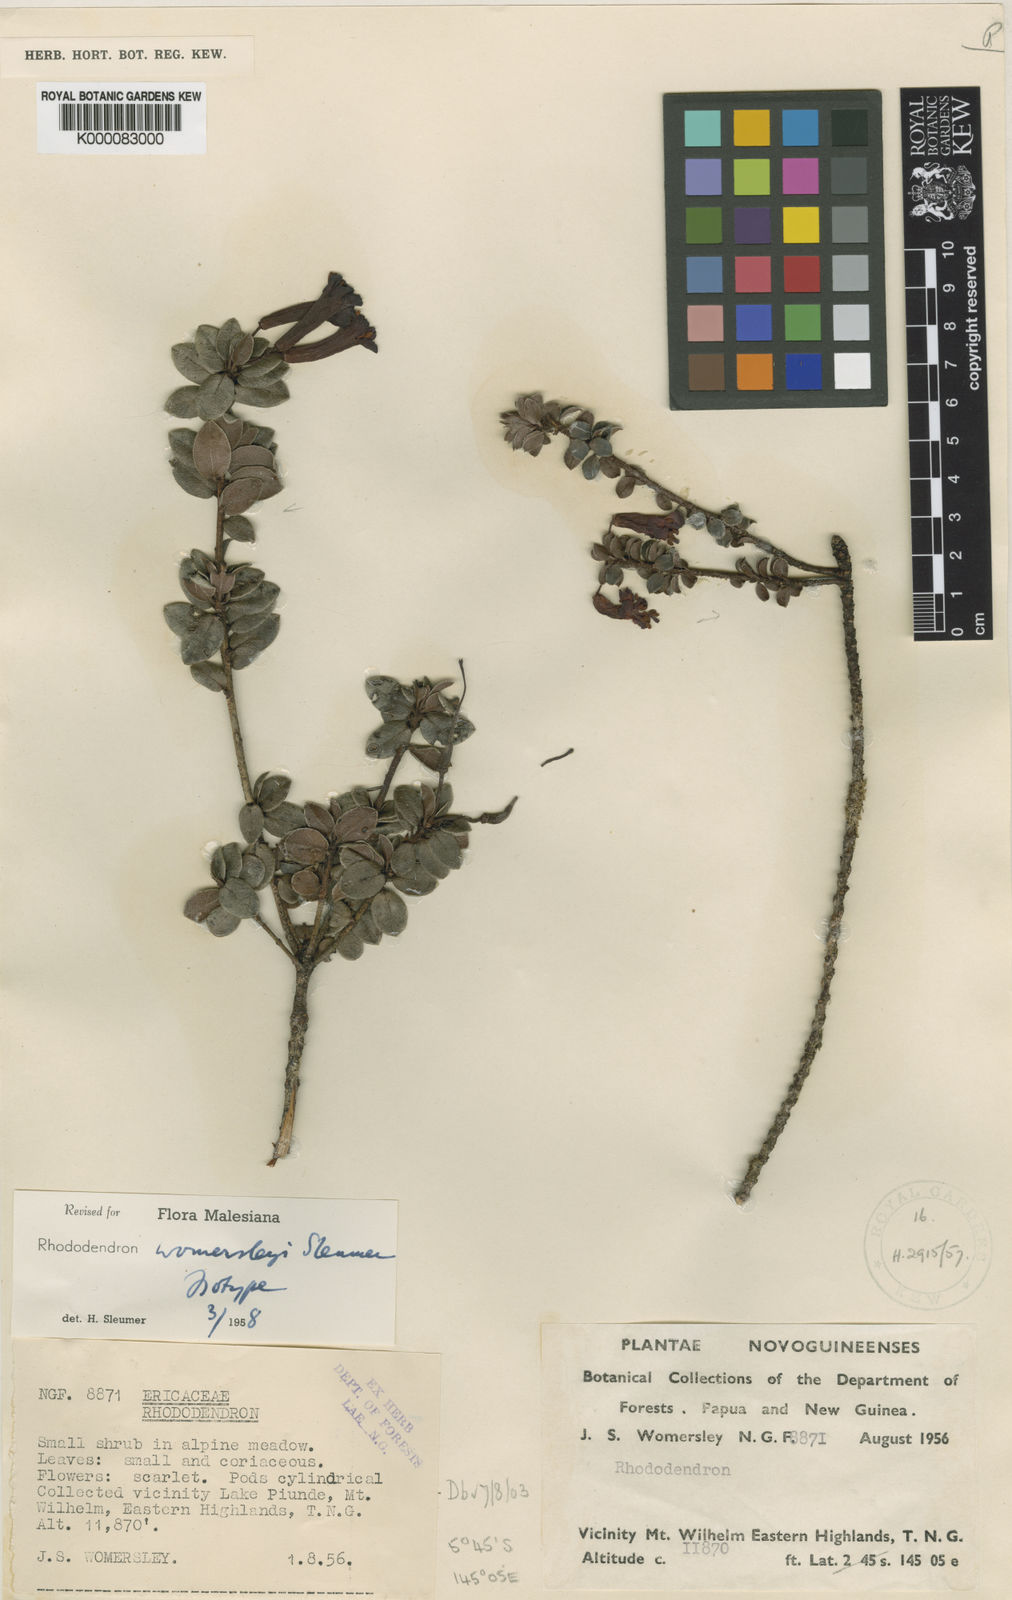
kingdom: Plantae
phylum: Tracheophyta
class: Magnoliopsida
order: Ericales
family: Ericaceae
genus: Rhododendron
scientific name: Rhododendron womersleyi
